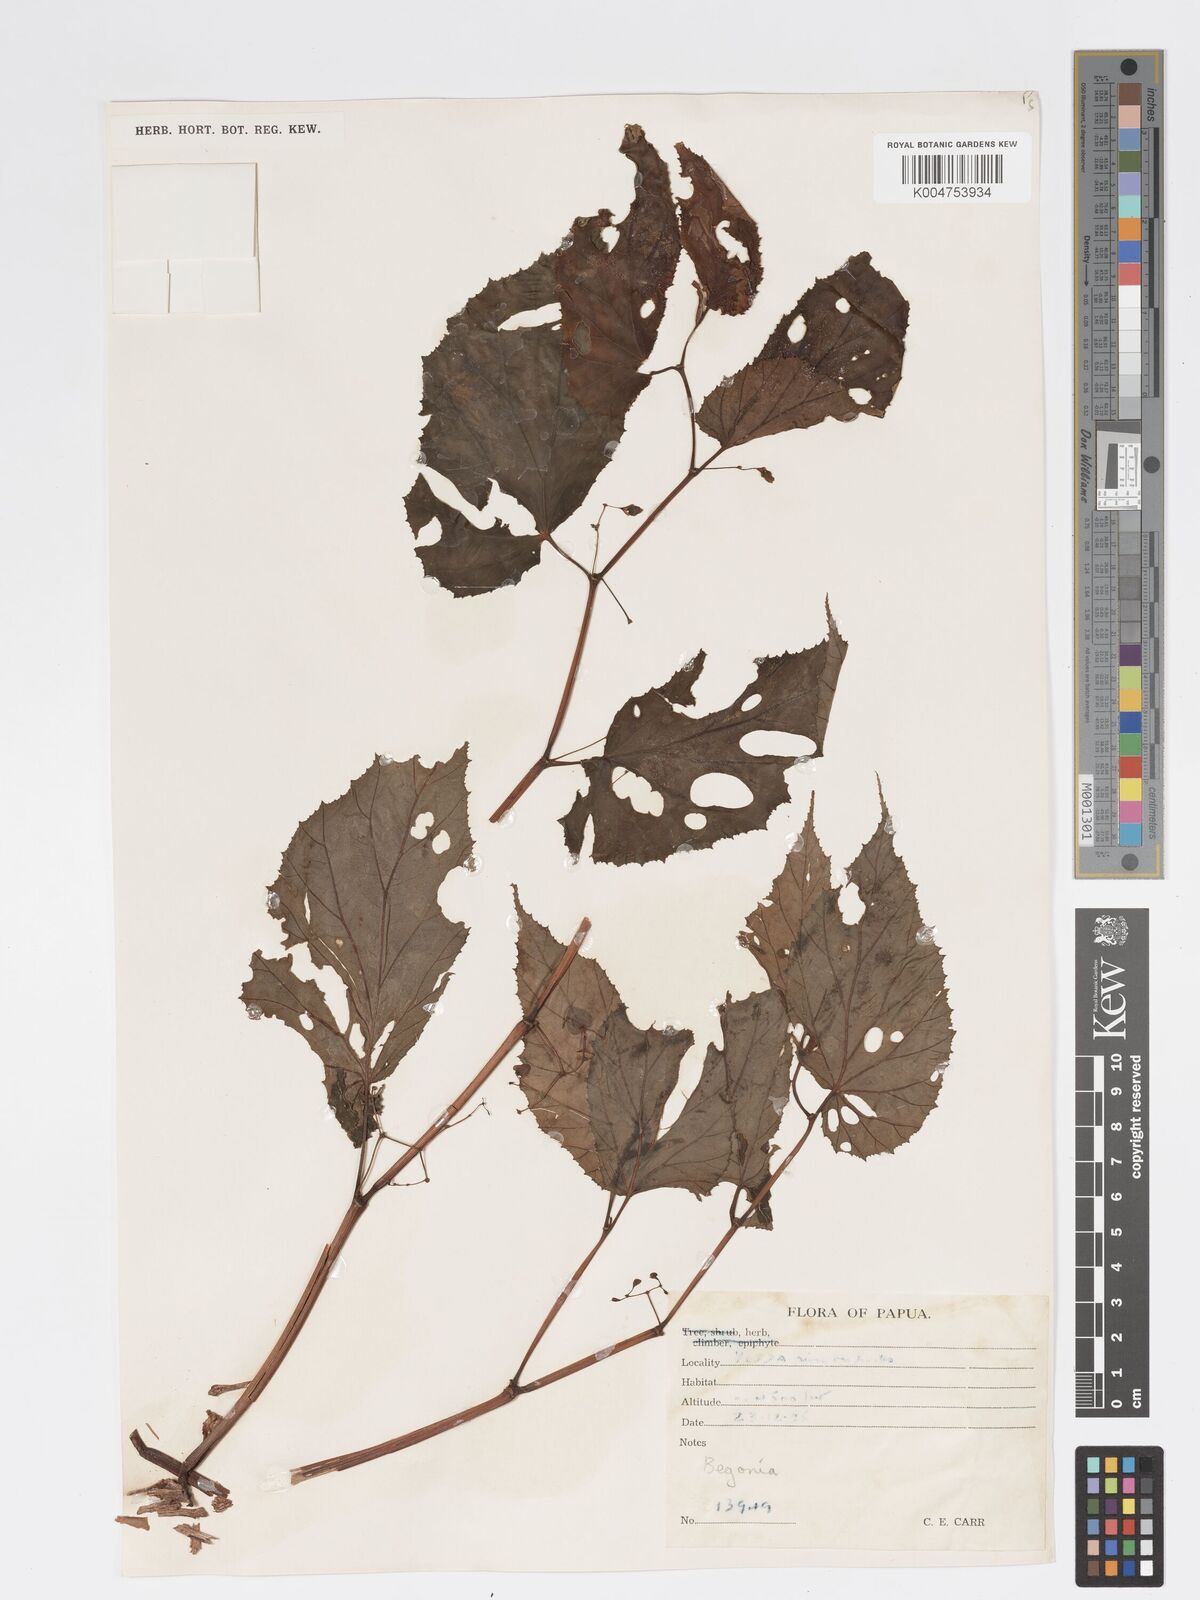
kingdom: Plantae
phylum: Tracheophyta
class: Magnoliopsida
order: Cucurbitales
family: Begoniaceae
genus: Begonia
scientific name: Begonia augustae
